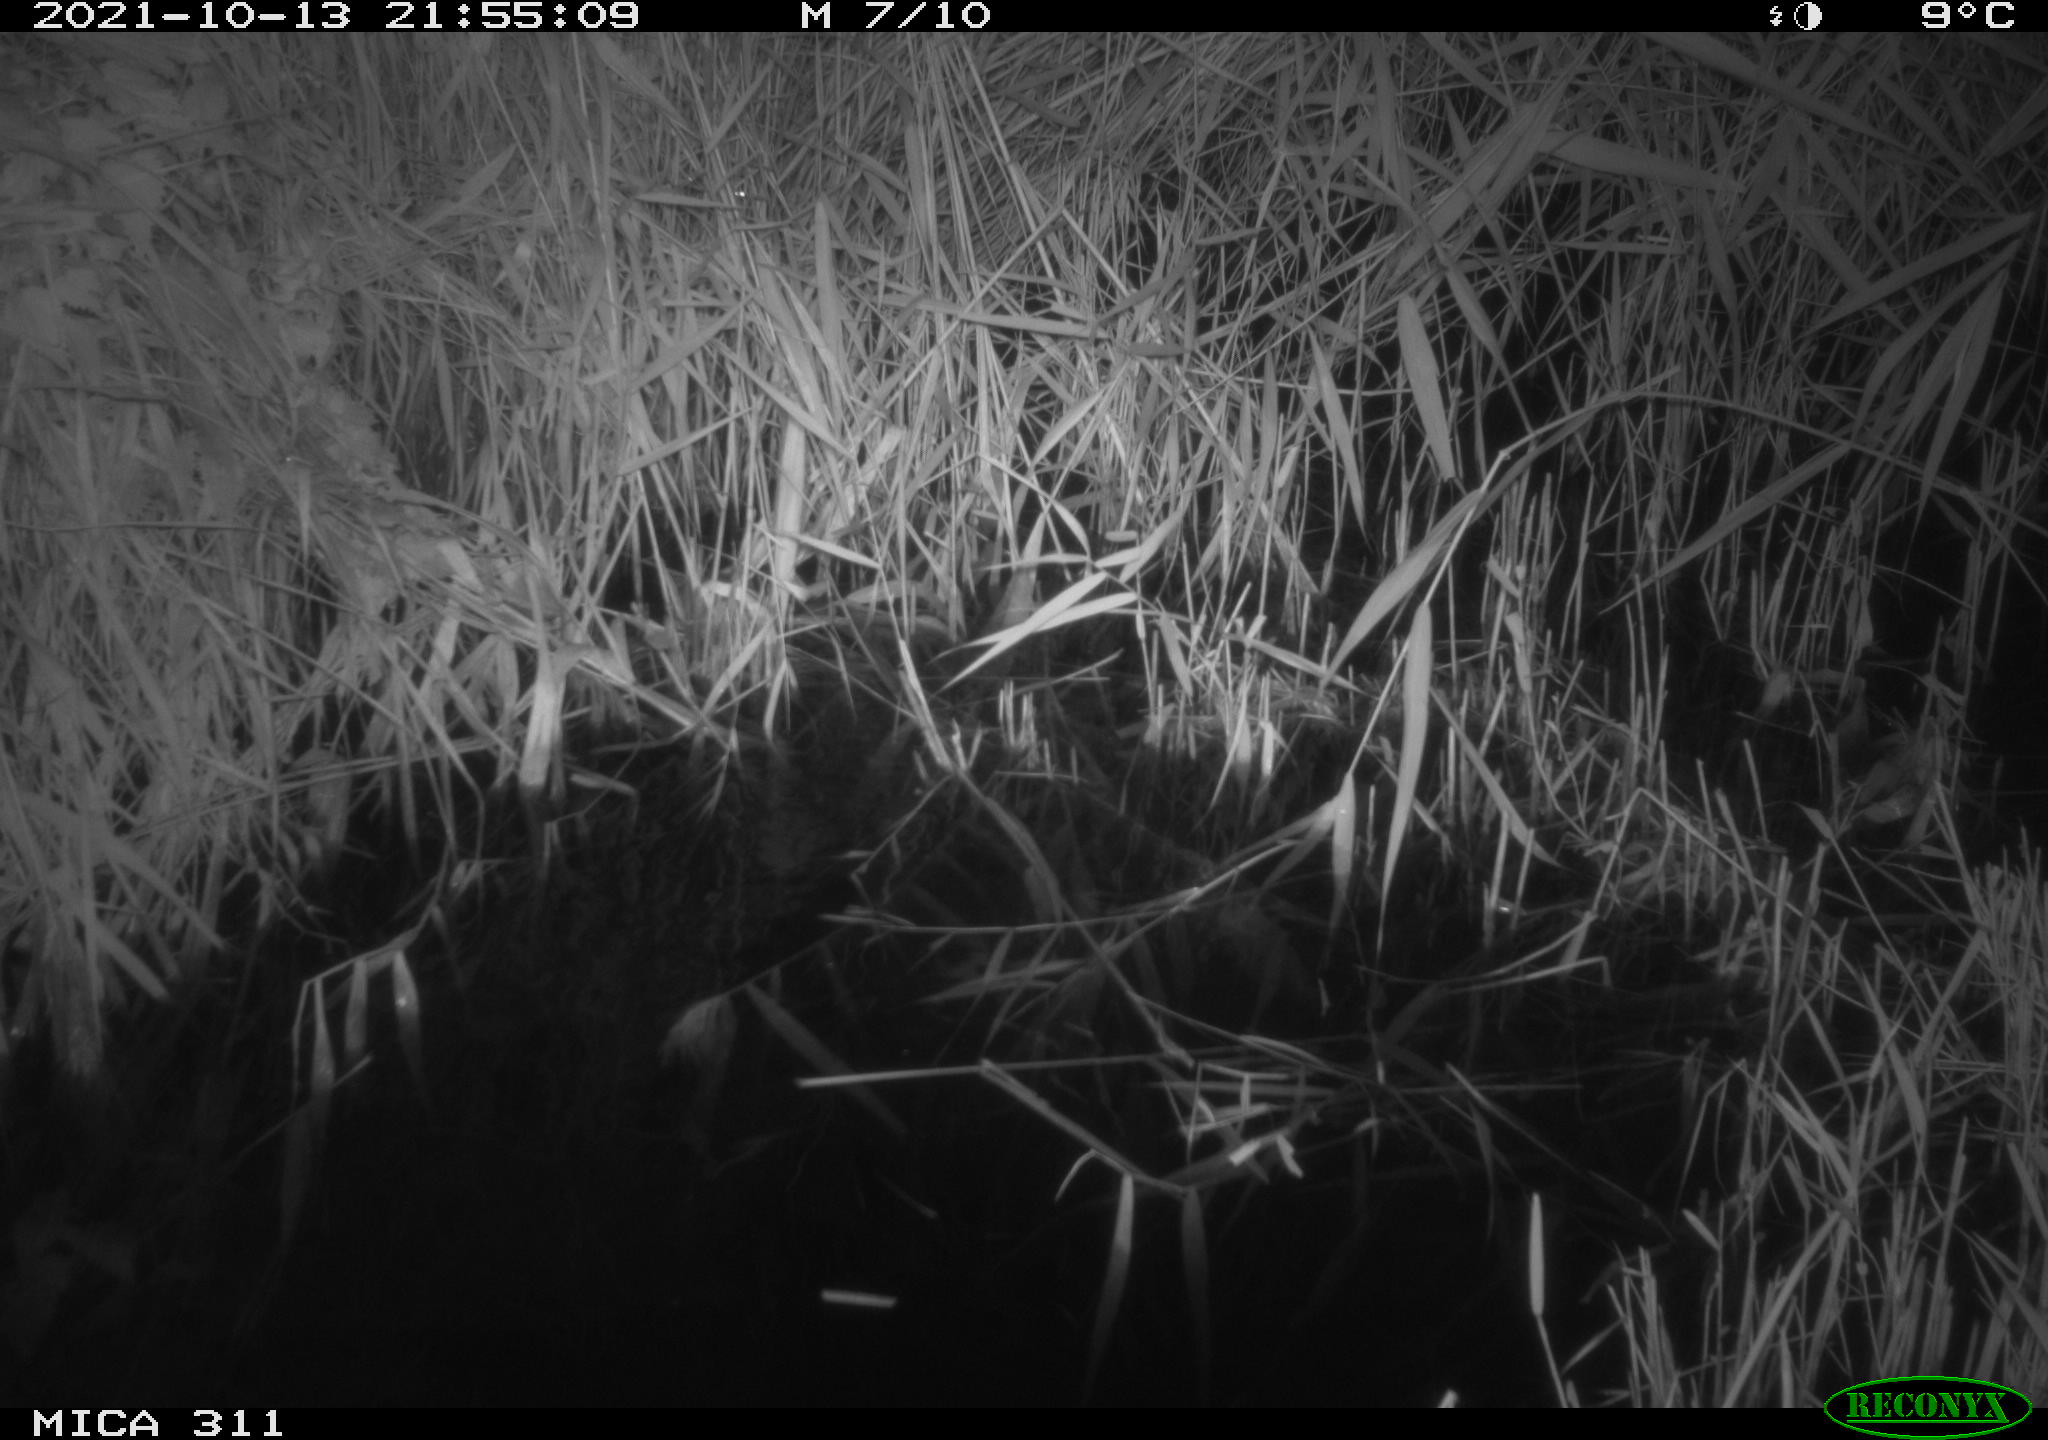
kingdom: Animalia
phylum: Chordata
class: Mammalia
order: Rodentia
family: Muridae
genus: Rattus
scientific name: Rattus norvegicus
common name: Brown rat
